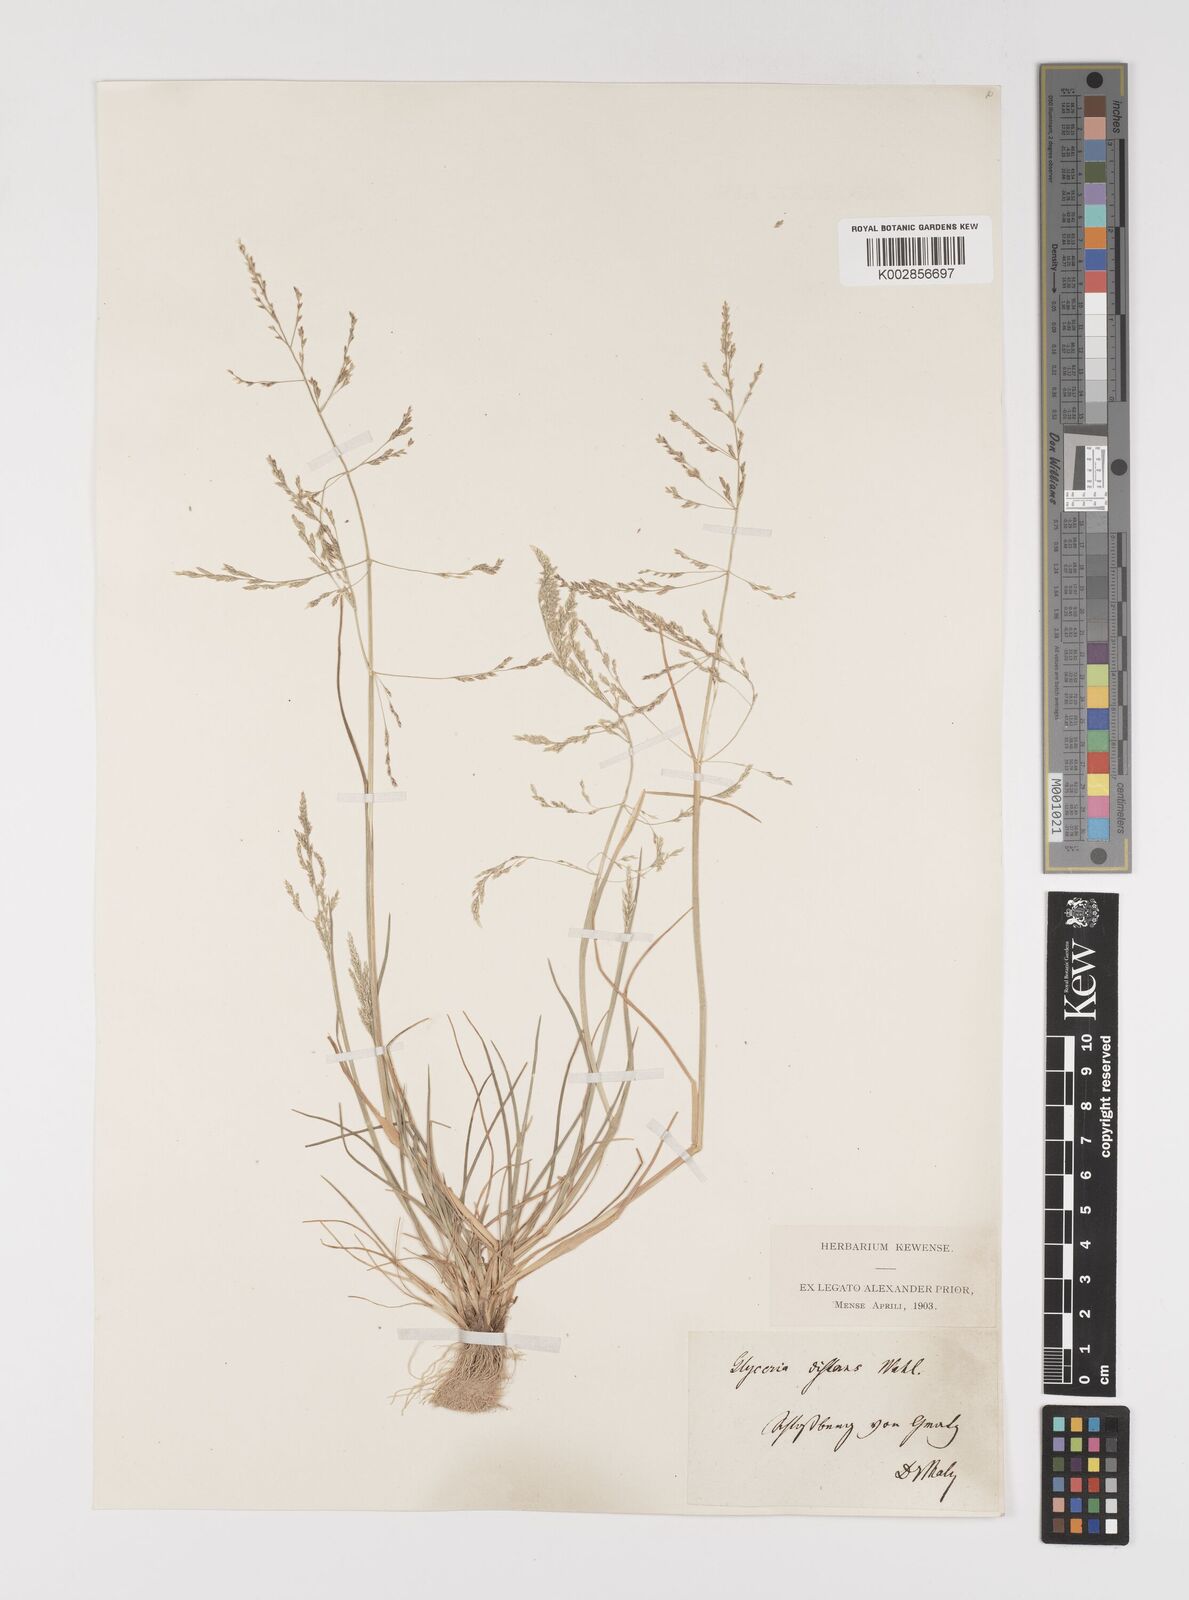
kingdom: Plantae
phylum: Tracheophyta
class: Liliopsida
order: Poales
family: Poaceae
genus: Puccinellia
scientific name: Puccinellia distans
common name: Weeping alkaligrass
